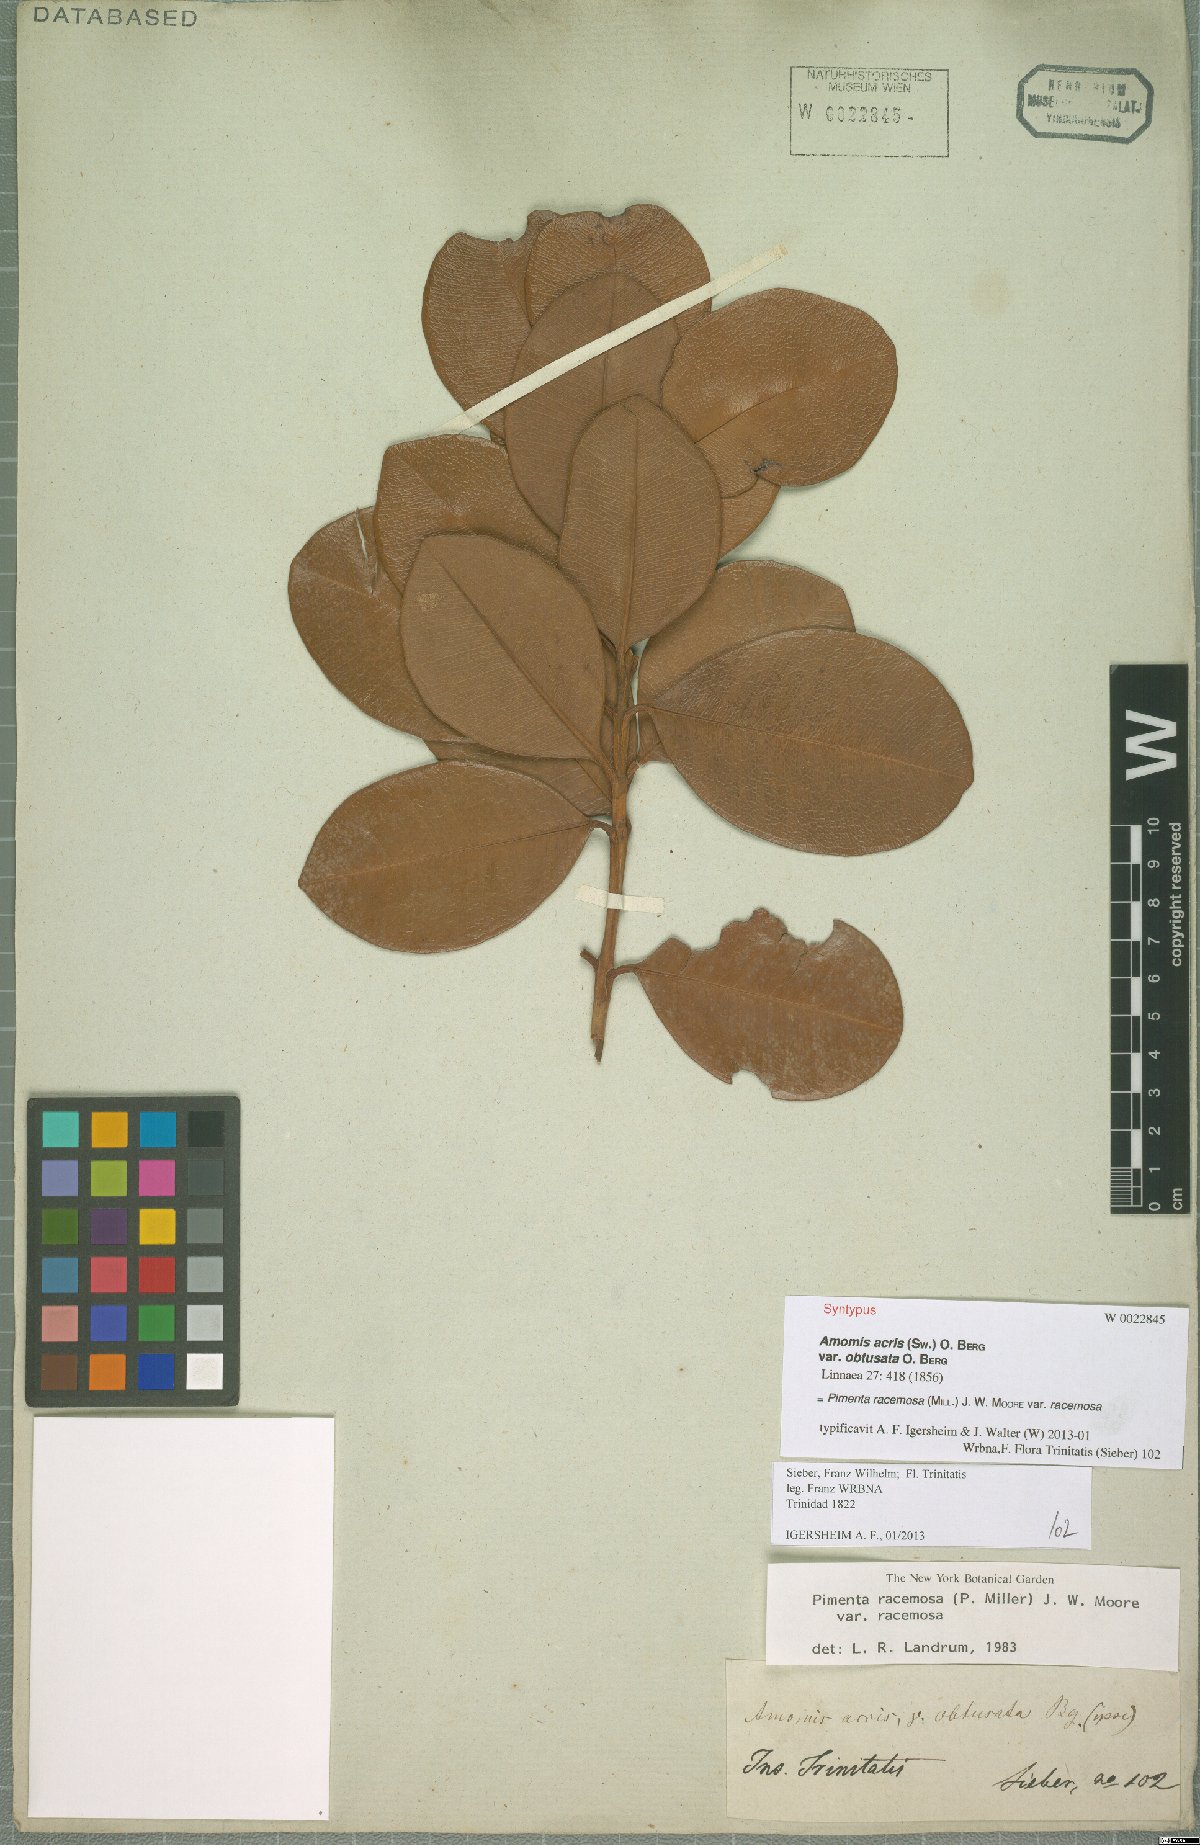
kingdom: Plantae
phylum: Tracheophyta
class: Magnoliopsida
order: Myrtales
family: Myrtaceae
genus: Pimenta
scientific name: Pimenta racemosa
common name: Bay rum tree
